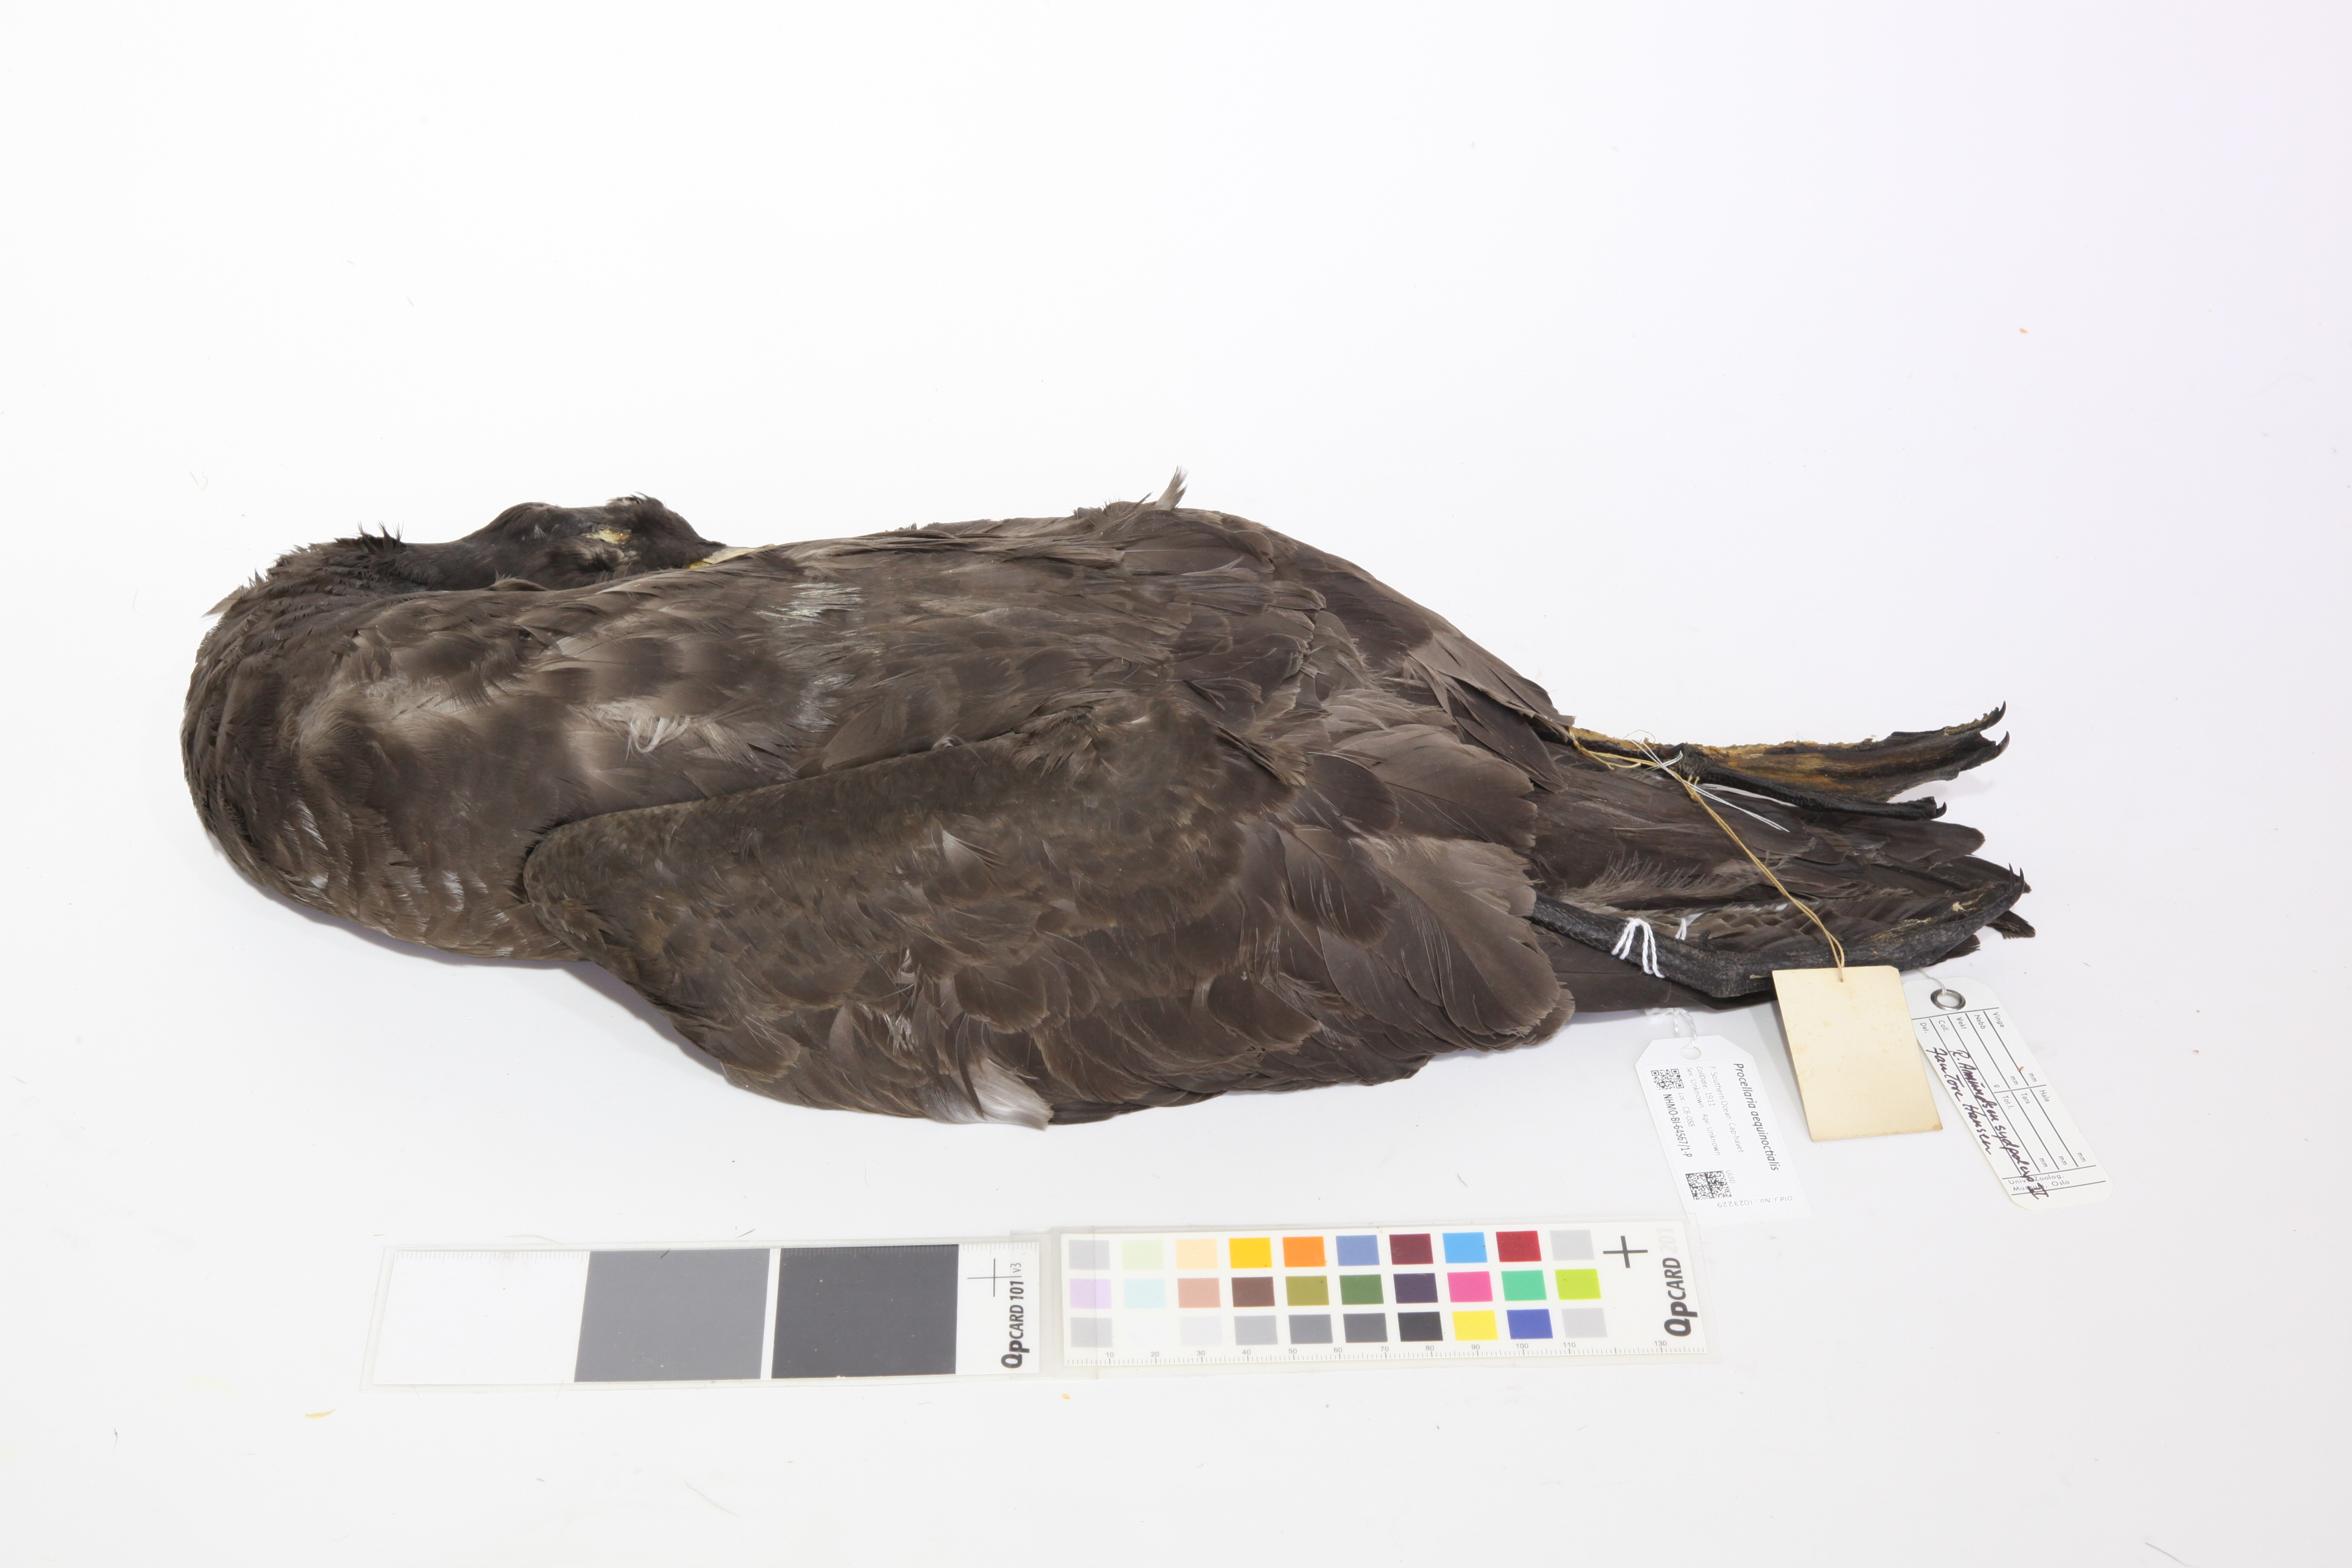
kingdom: Animalia
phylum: Chordata
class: Aves
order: Procellariiformes
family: Procellariidae
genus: Procellaria
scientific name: Procellaria aequinoctialis
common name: White-chinned petrel
